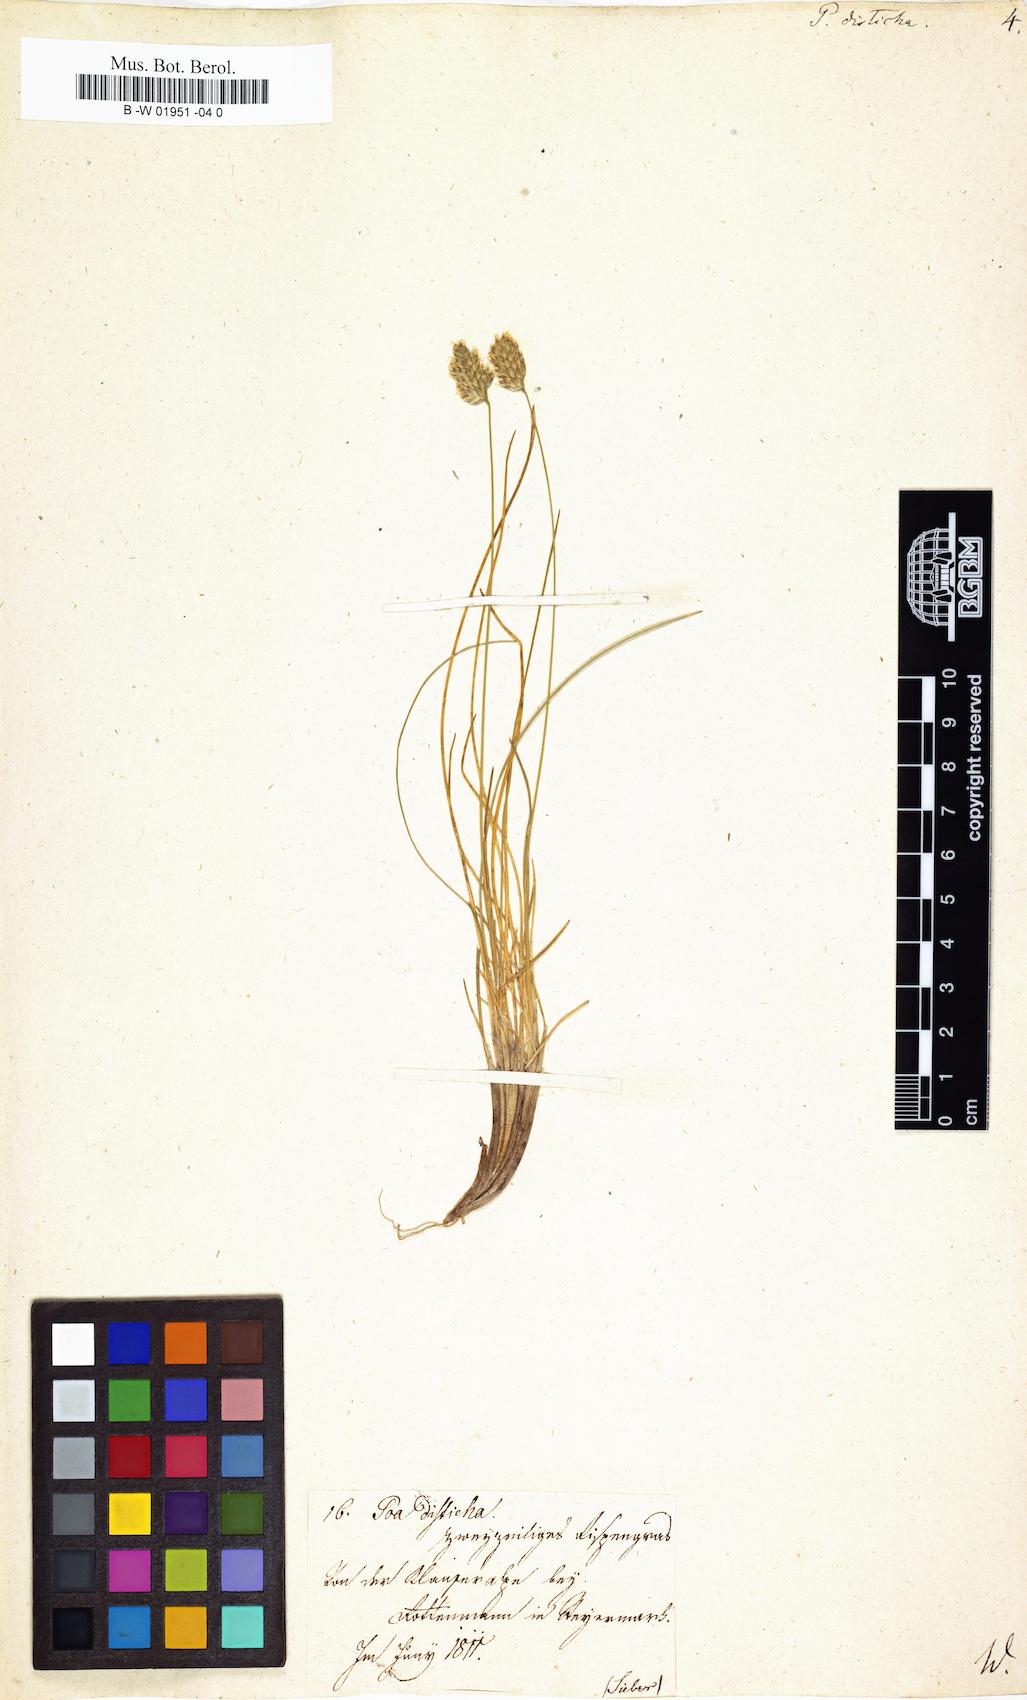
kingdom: Plantae
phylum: Tracheophyta
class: Liliopsida
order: Poales
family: Poaceae
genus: Oreochloa
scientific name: Oreochloa disticha
